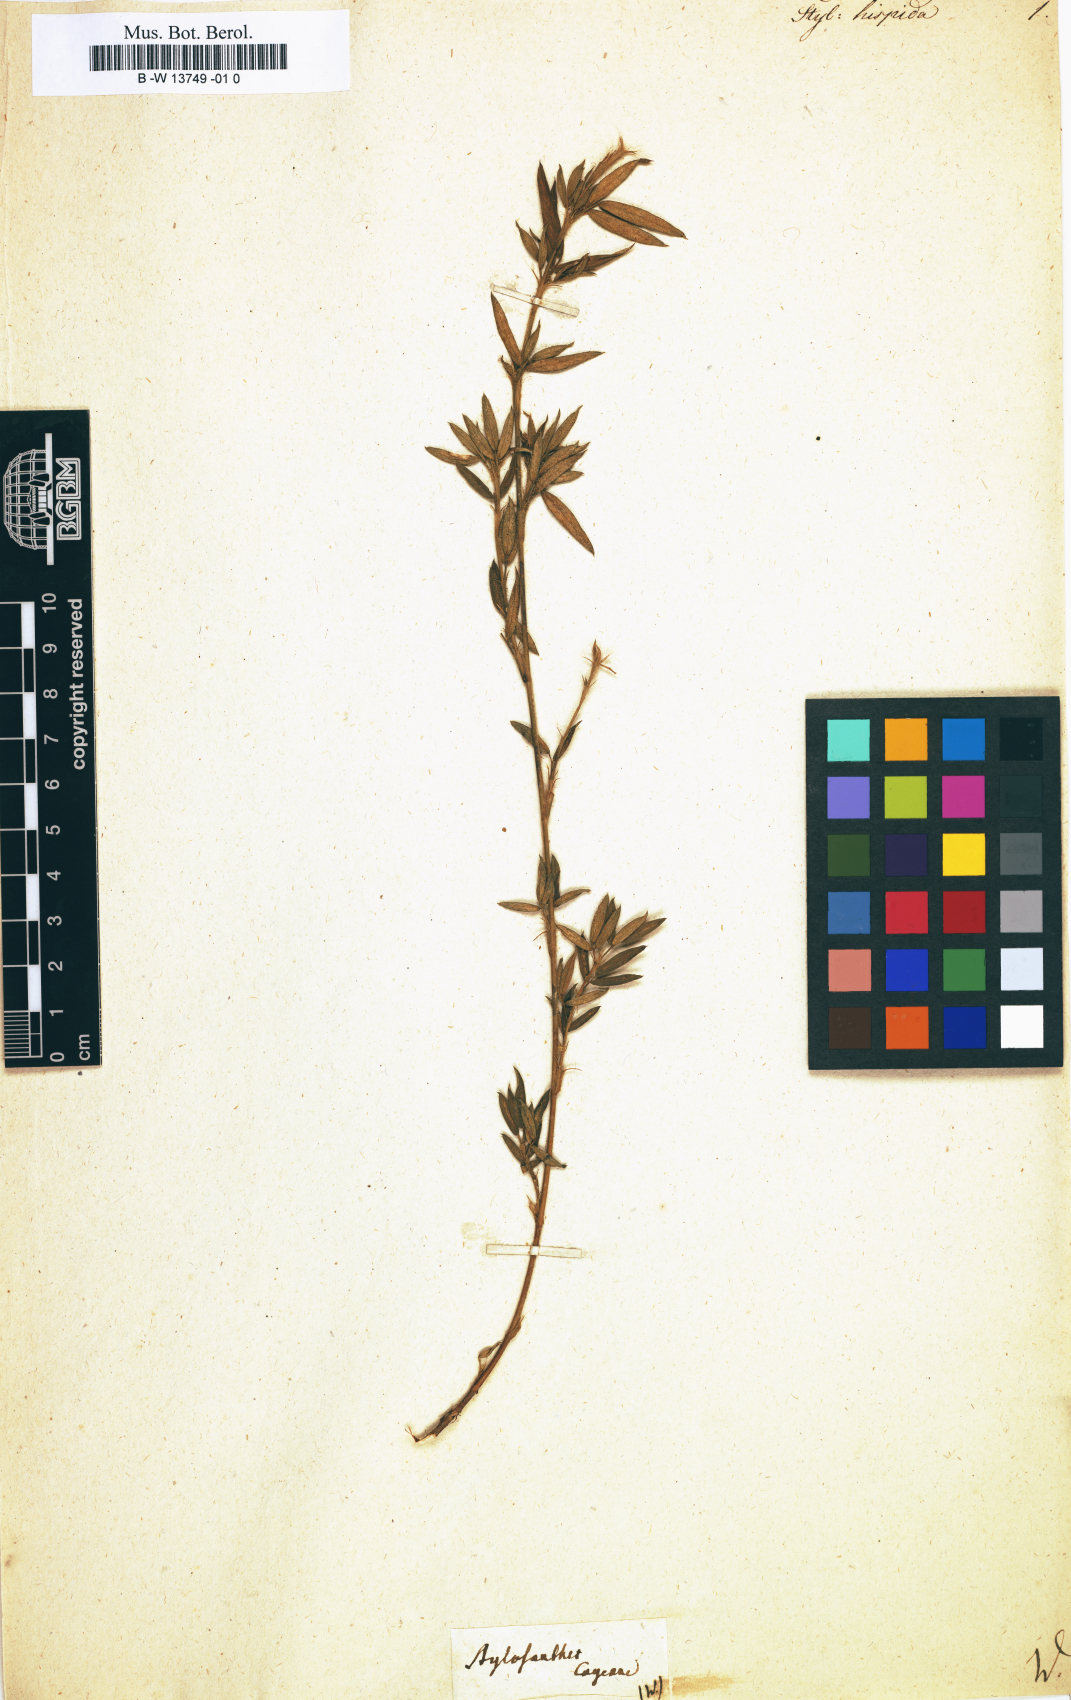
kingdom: Plantae
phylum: Tracheophyta
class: Magnoliopsida
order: Fabales
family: Fabaceae
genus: Stylosanthes
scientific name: Stylosanthes hispida
